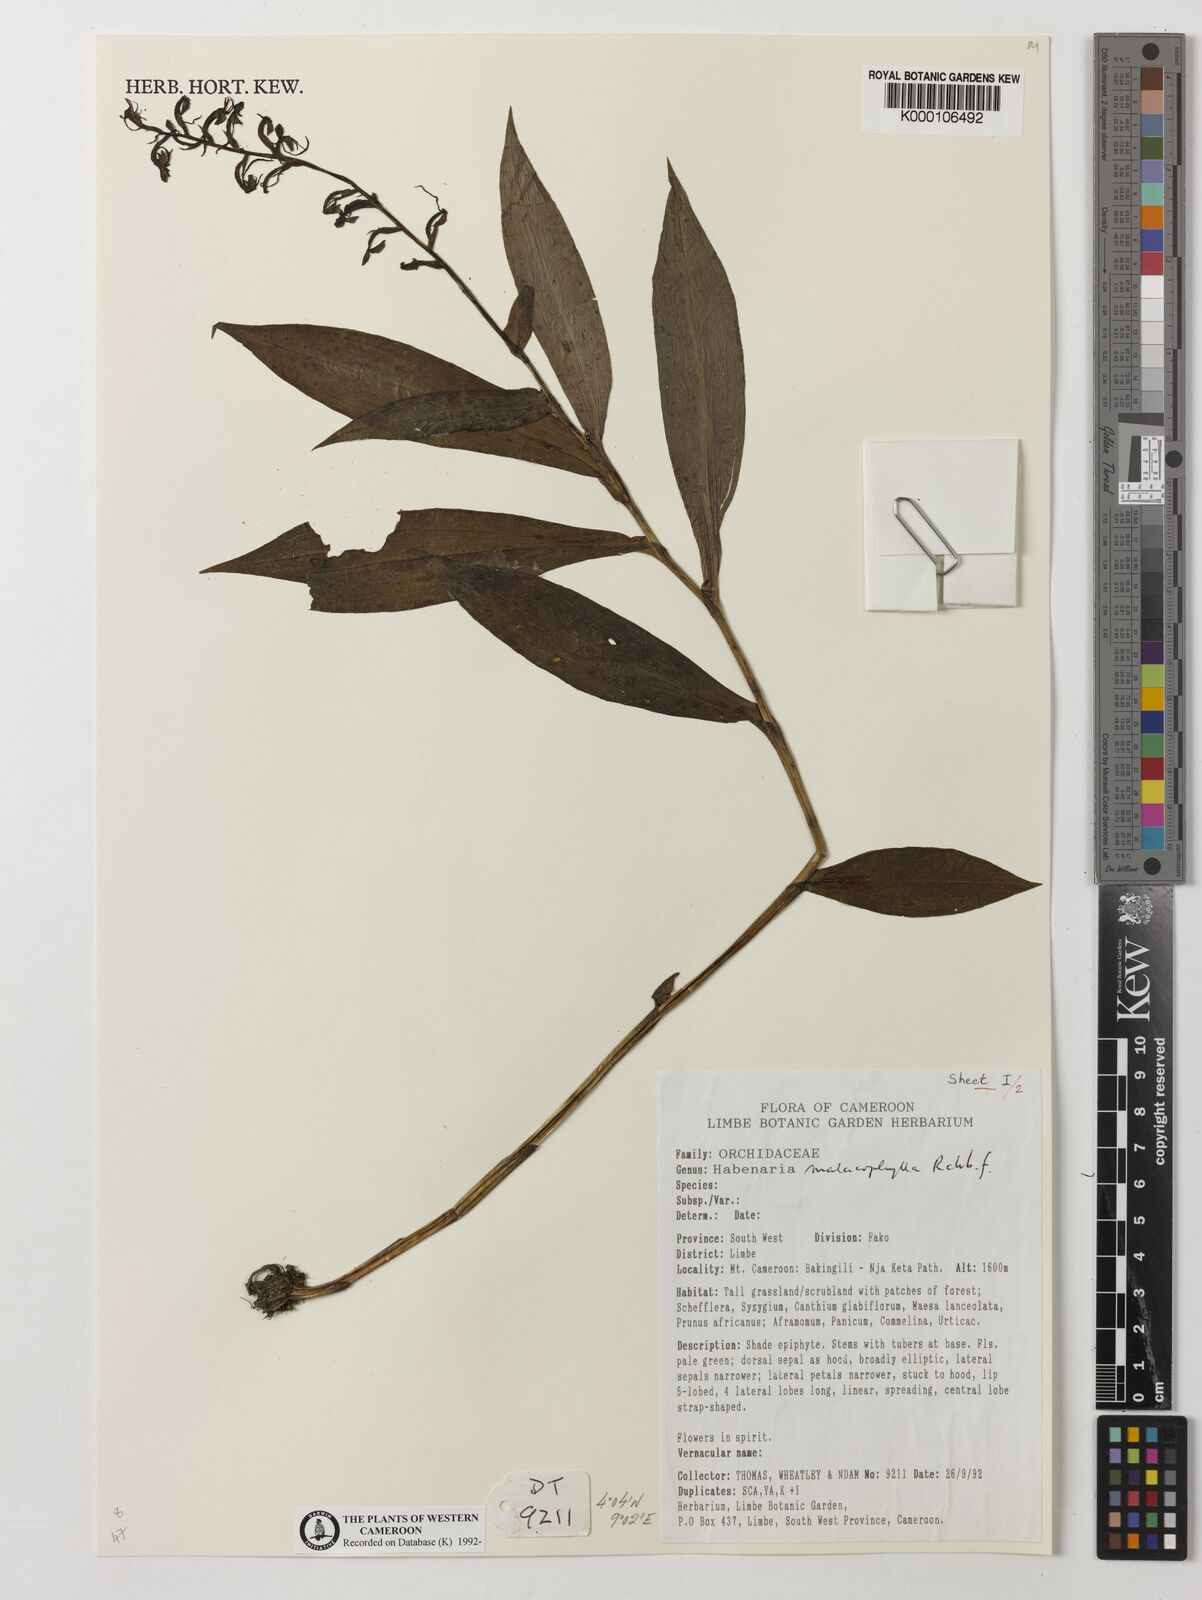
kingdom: Plantae
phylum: Tracheophyta
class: Liliopsida
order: Asparagales
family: Orchidaceae
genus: Habenaria
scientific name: Habenaria malacophylla
